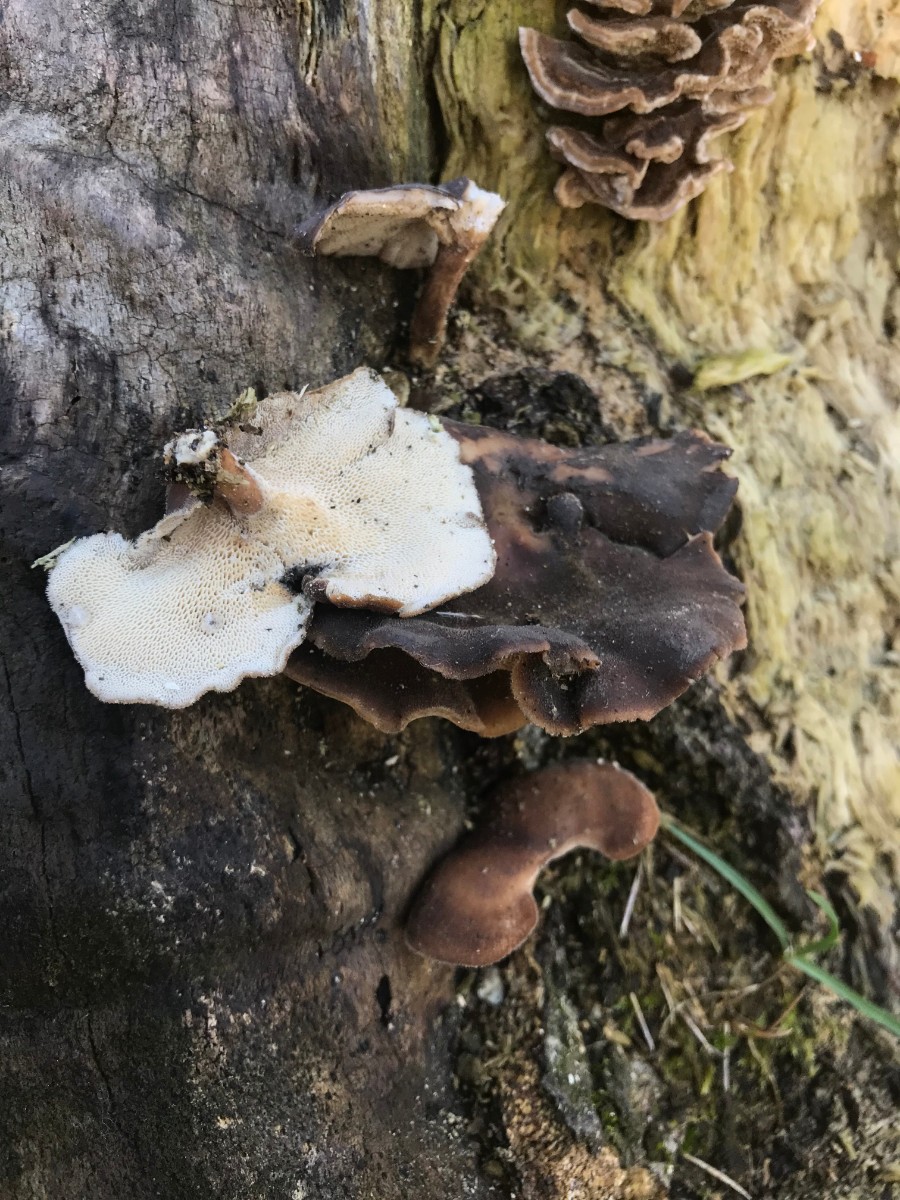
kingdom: Fungi
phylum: Basidiomycota
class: Agaricomycetes
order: Polyporales
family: Polyporaceae
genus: Lentinus
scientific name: Lentinus brumalis
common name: vinter-stilkporesvamp
